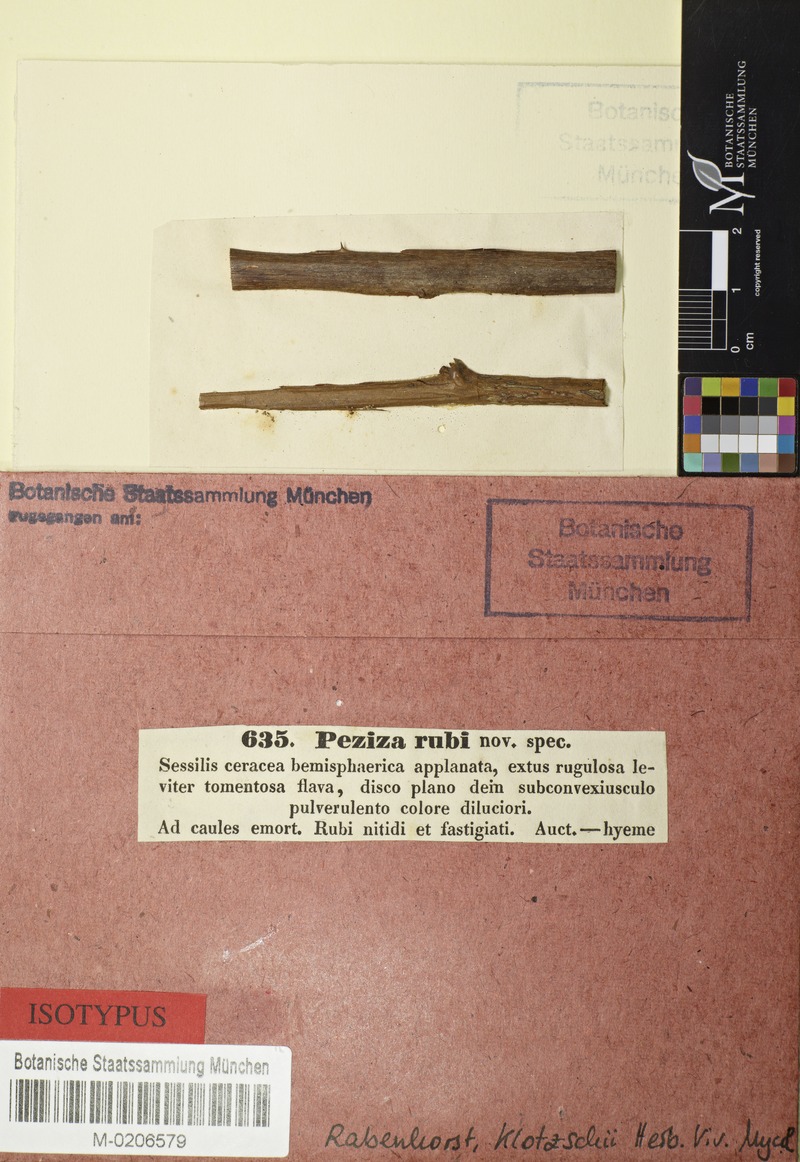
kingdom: Fungi
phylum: Ascomycota
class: Leotiomycetes
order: Helotiales
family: Dermateaceae
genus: Pezicula
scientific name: Pezicula rubi
